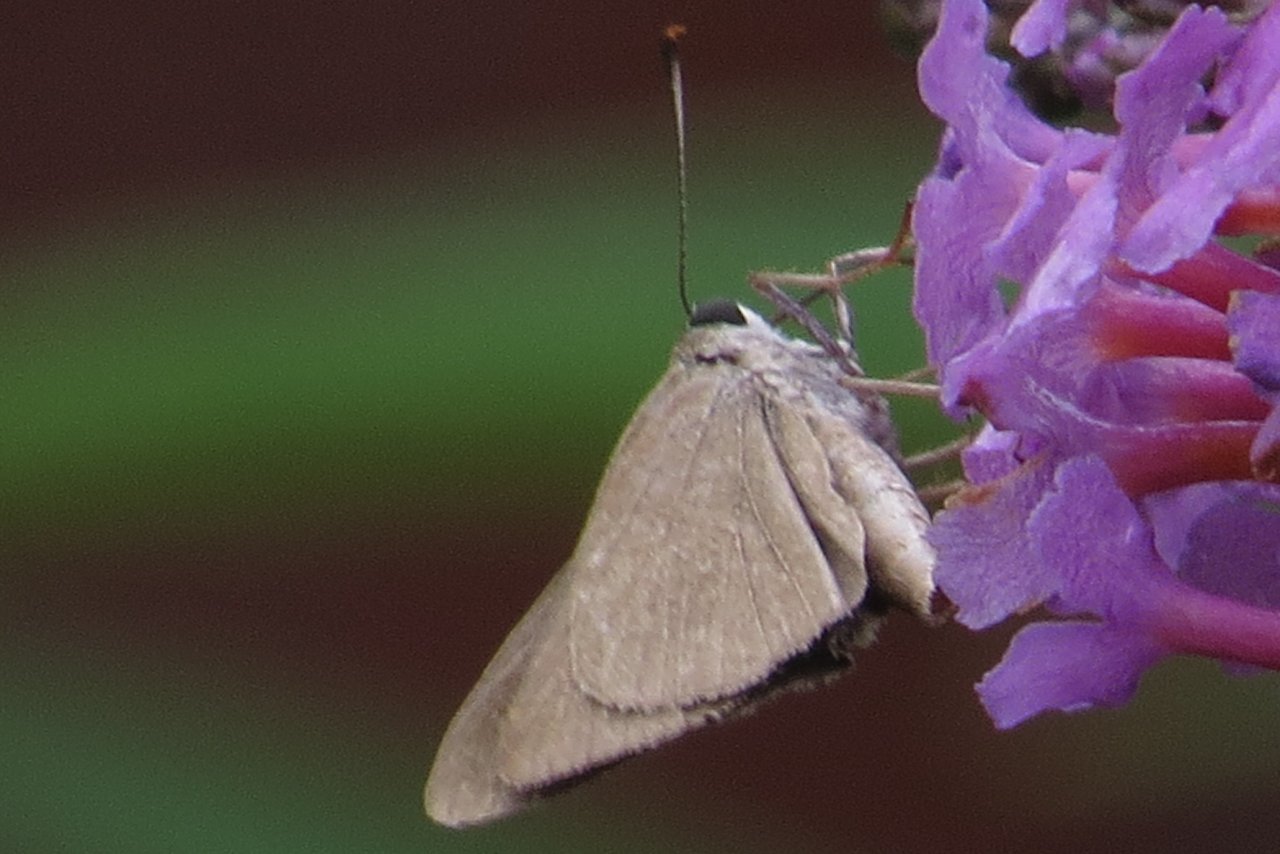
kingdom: Animalia
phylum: Arthropoda
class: Insecta
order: Lepidoptera
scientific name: Lepidoptera
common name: Butterflies
